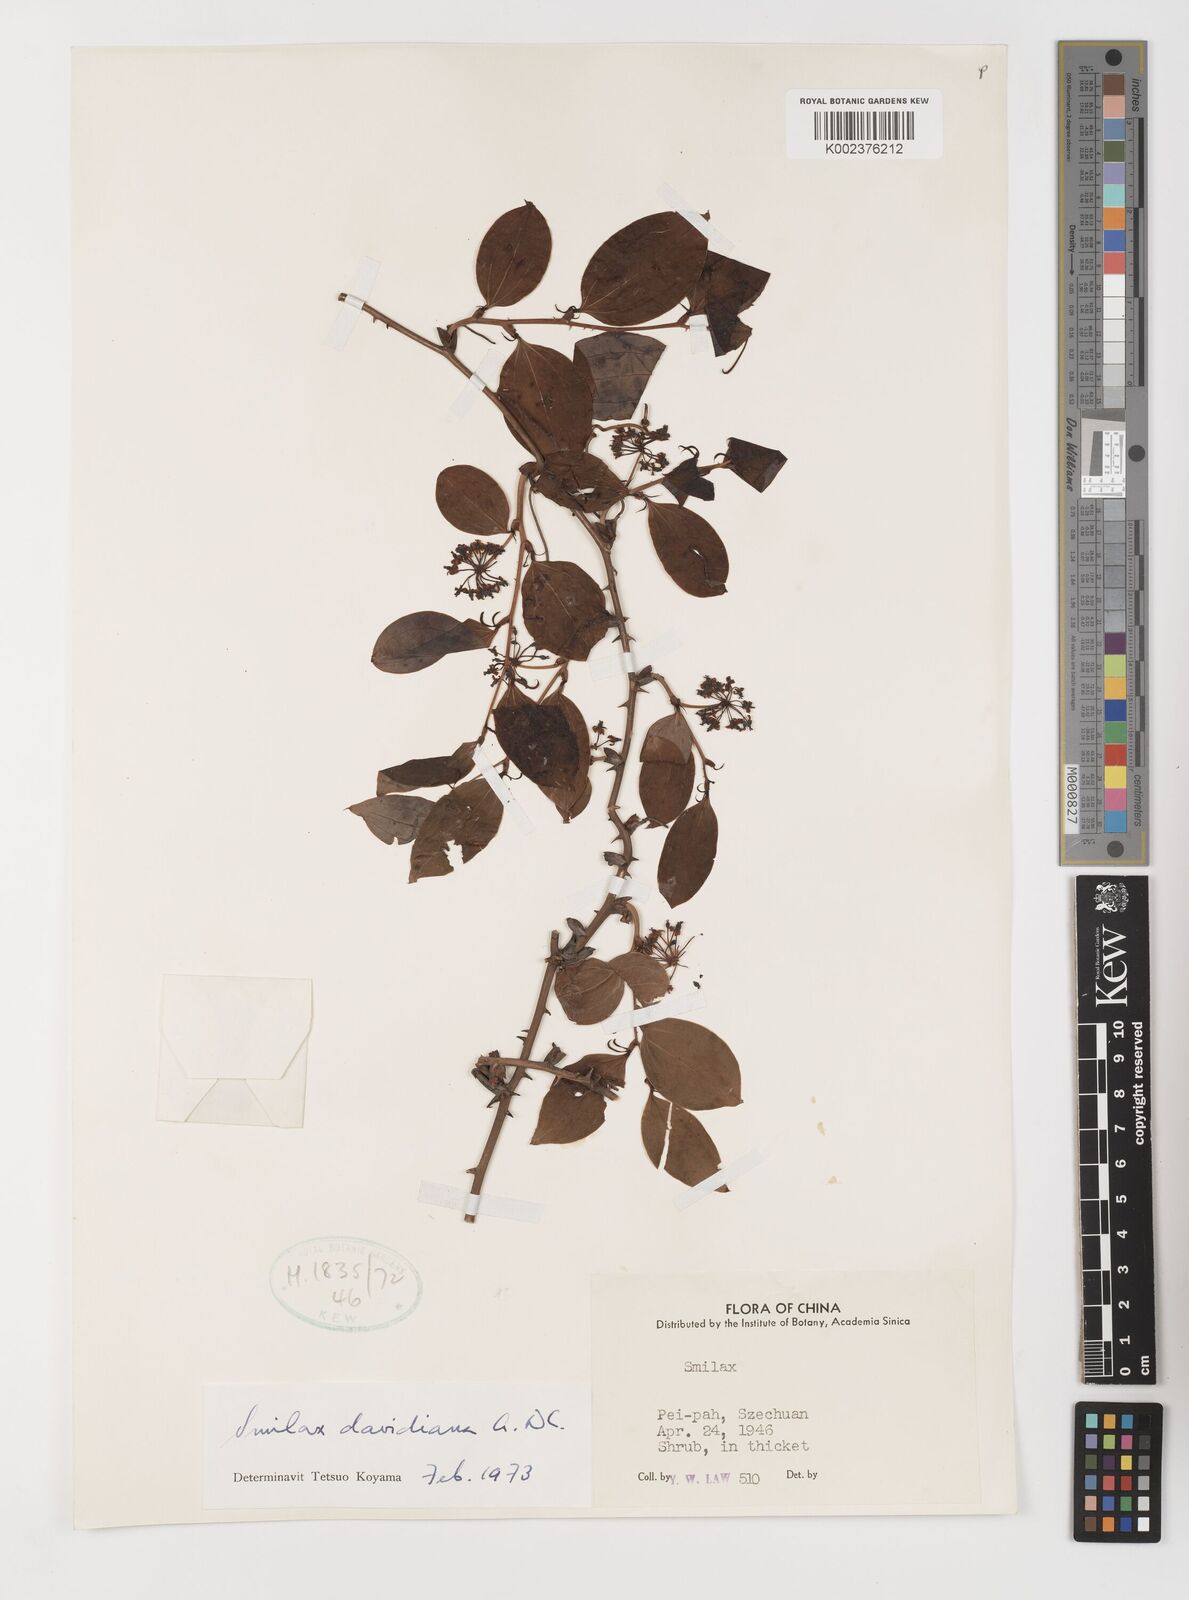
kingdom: Plantae
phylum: Tracheophyta
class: Liliopsida
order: Liliales
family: Smilacaceae
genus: Smilax
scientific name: Smilax davidiana
